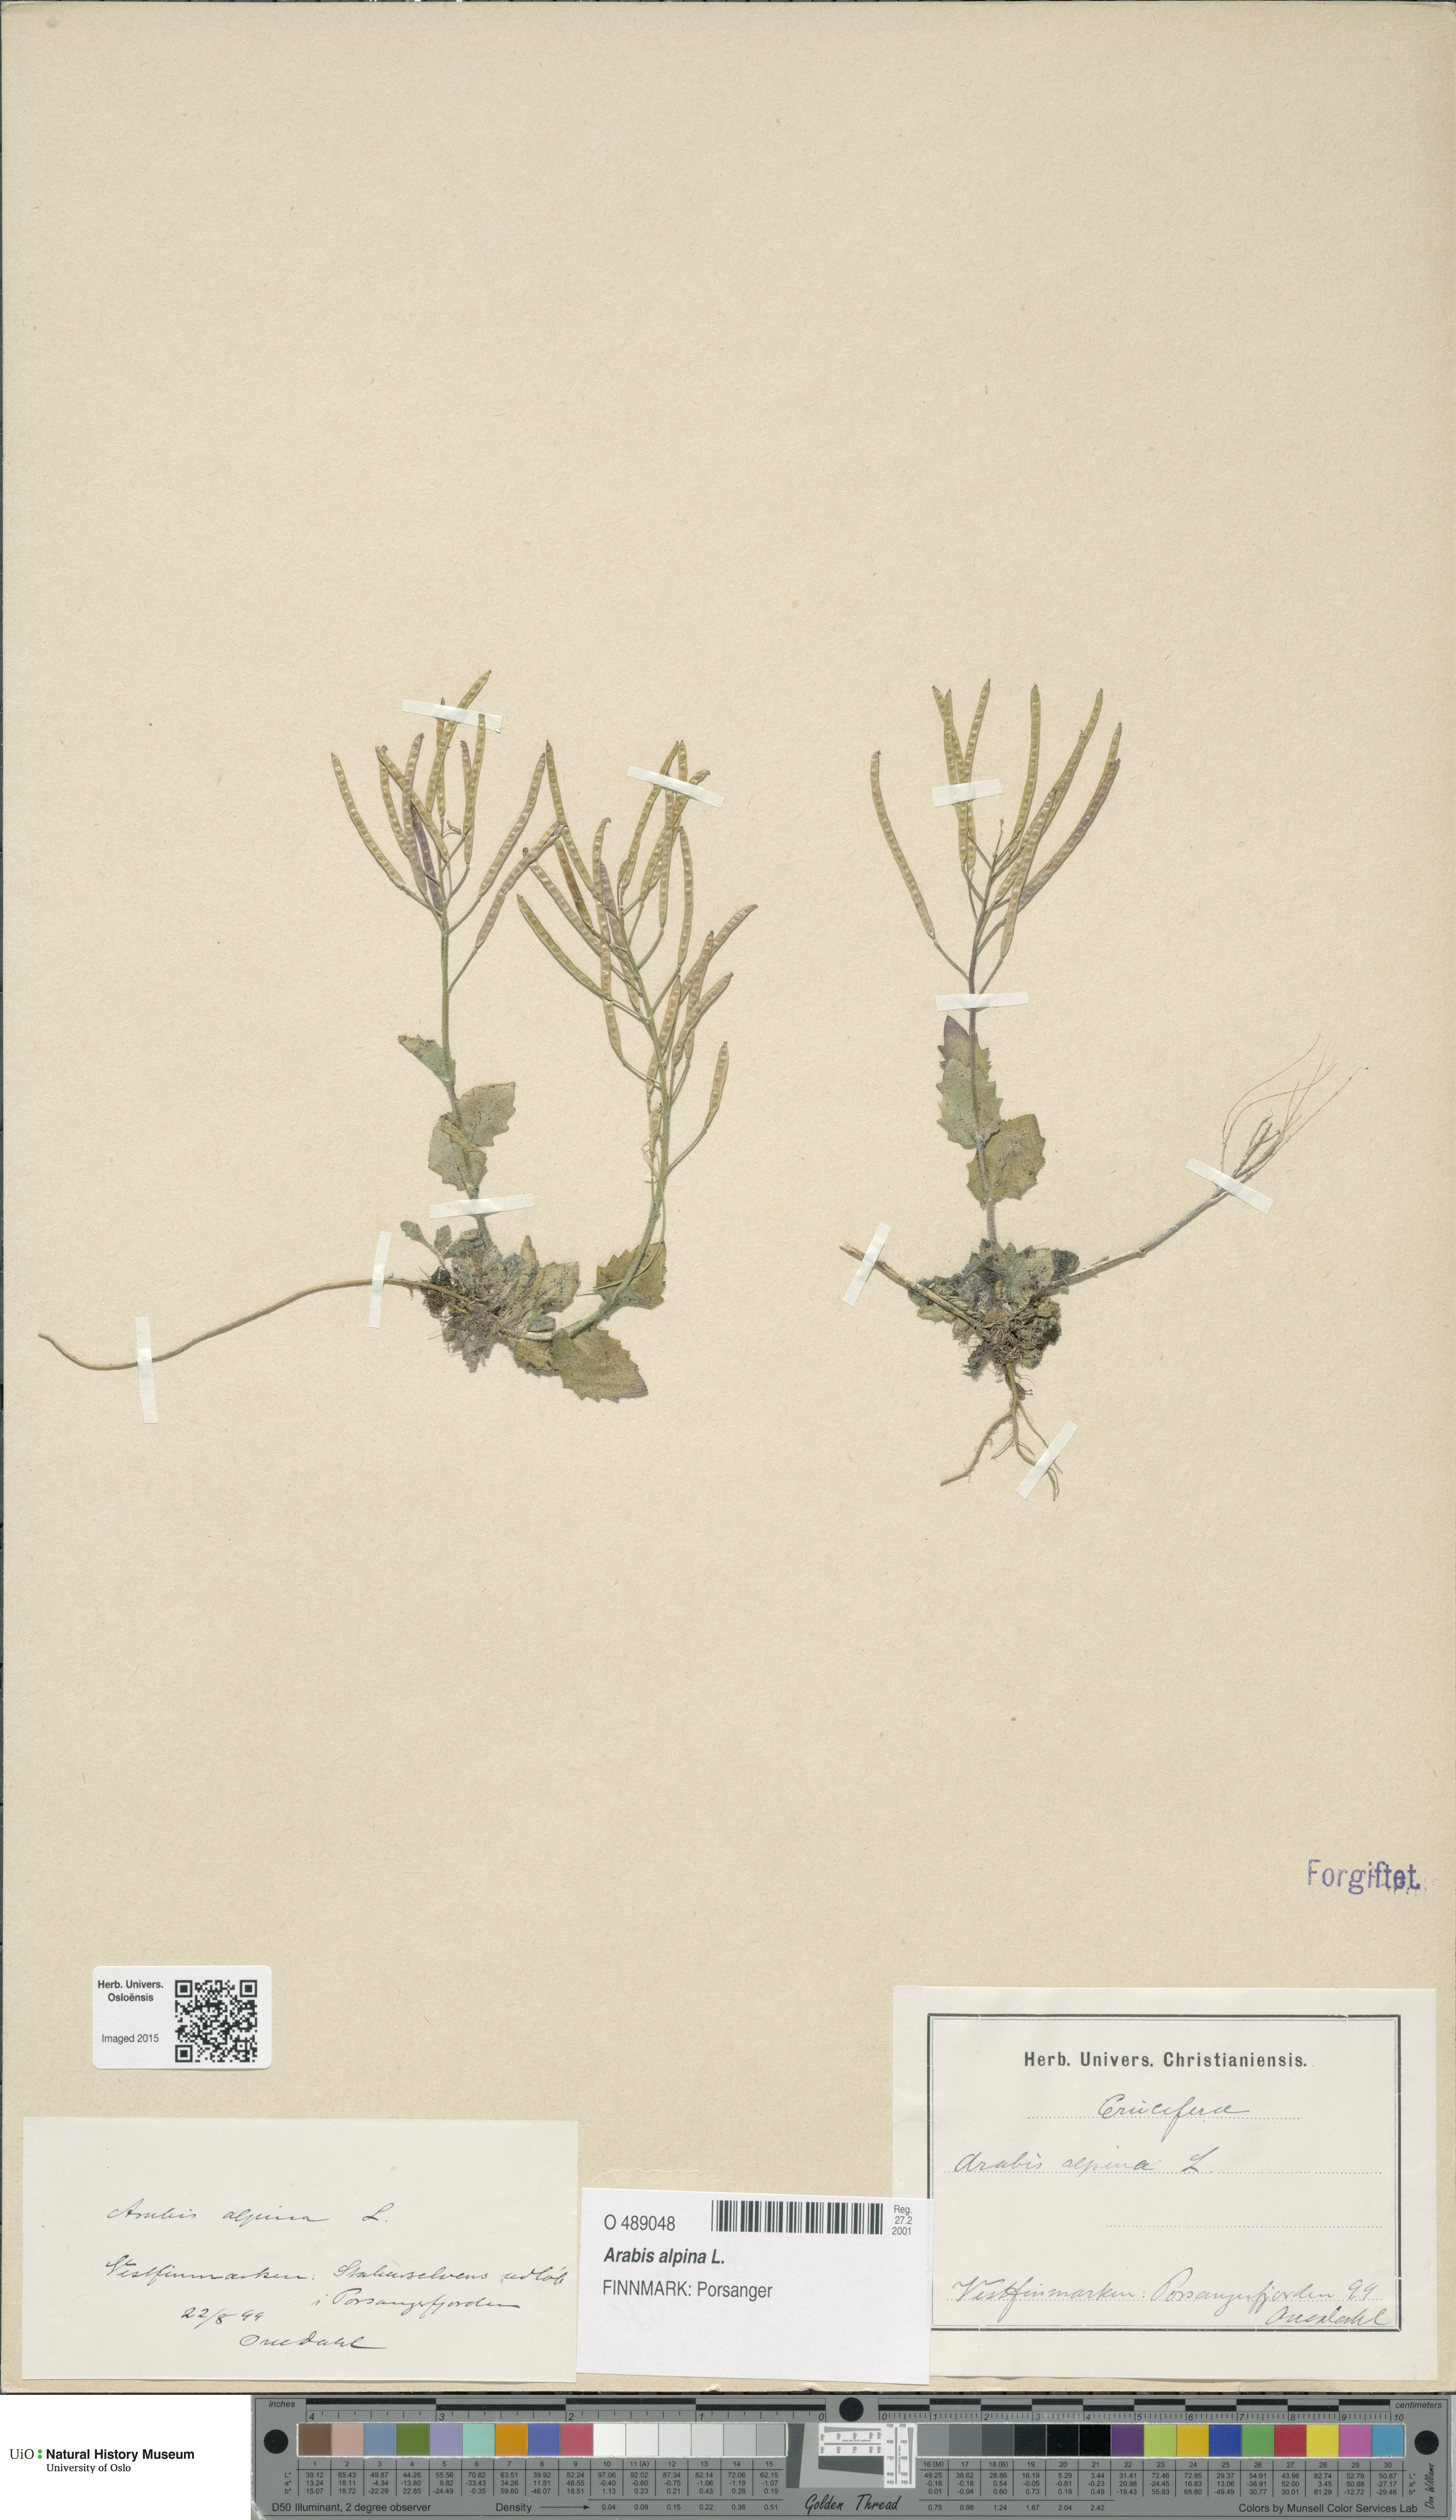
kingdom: Plantae
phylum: Tracheophyta
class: Magnoliopsida
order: Brassicales
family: Brassicaceae
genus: Arabis
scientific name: Arabis alpina
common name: Alpine rock-cress
